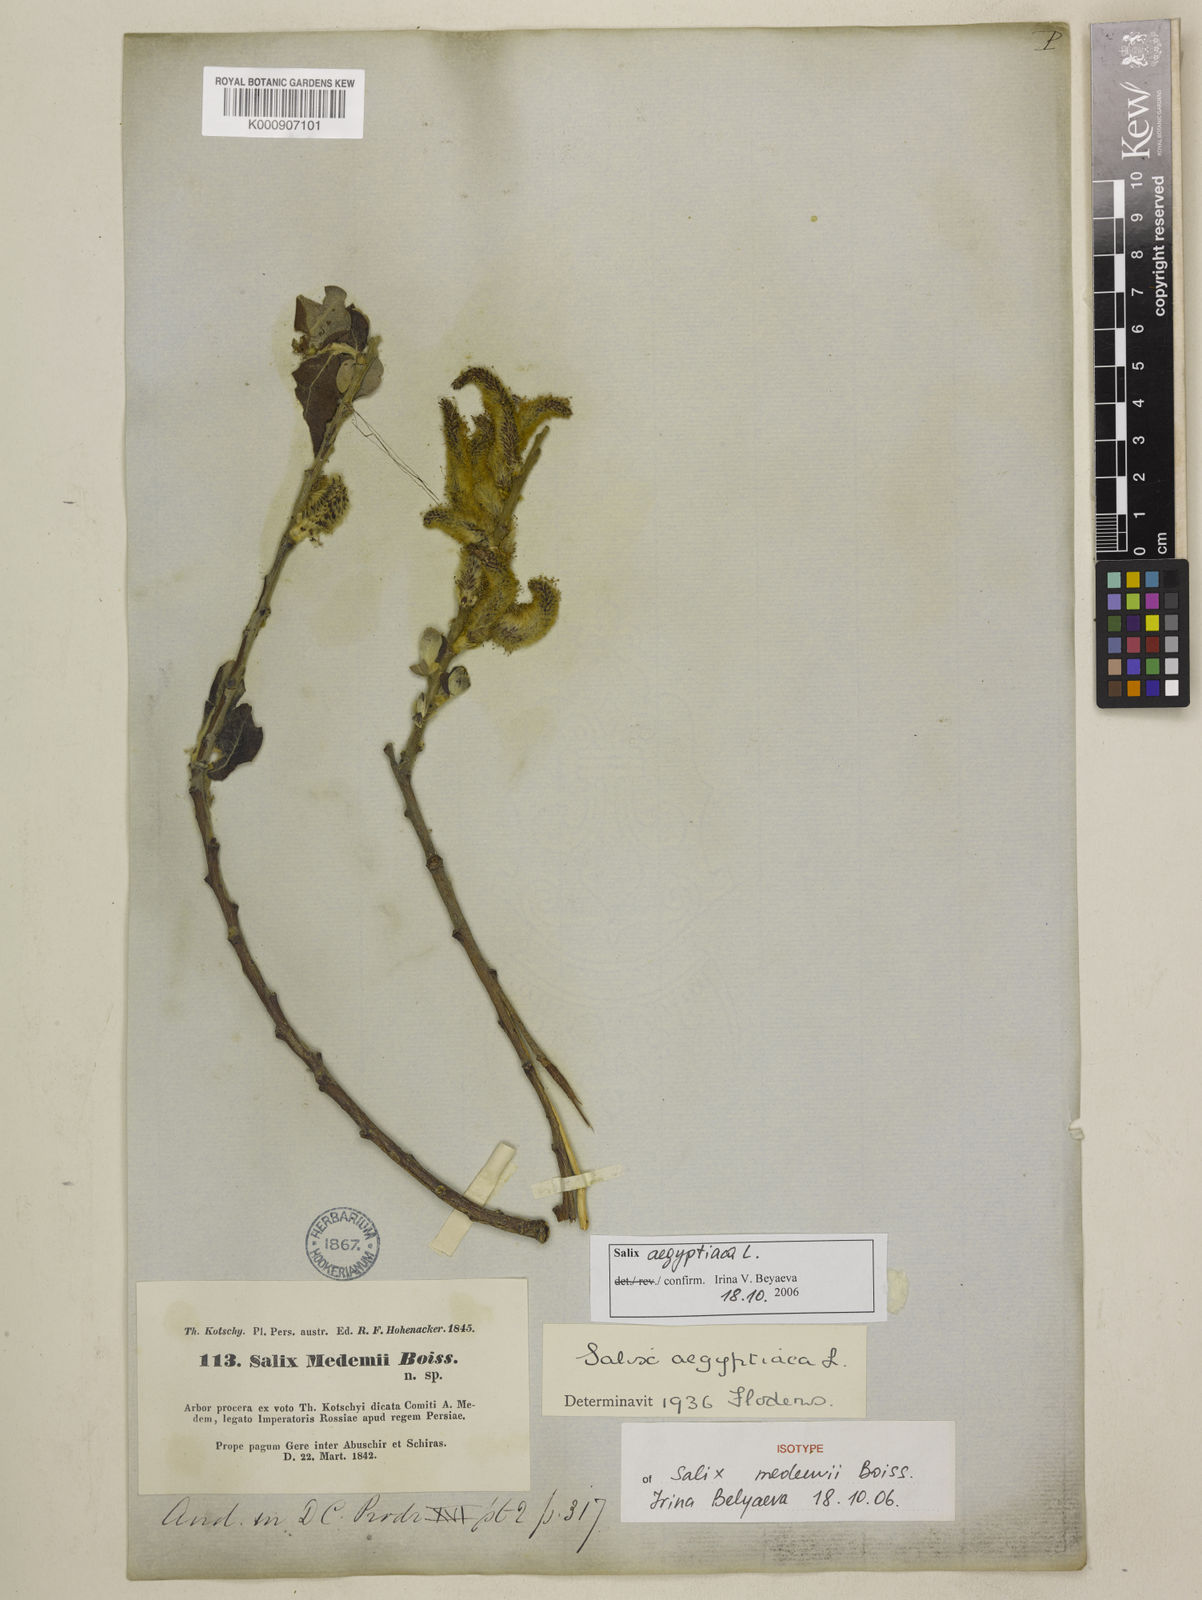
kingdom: Plantae
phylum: Tracheophyta
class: Magnoliopsida
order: Malpighiales
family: Salicaceae
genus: Salix
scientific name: Salix aegyptiaca
